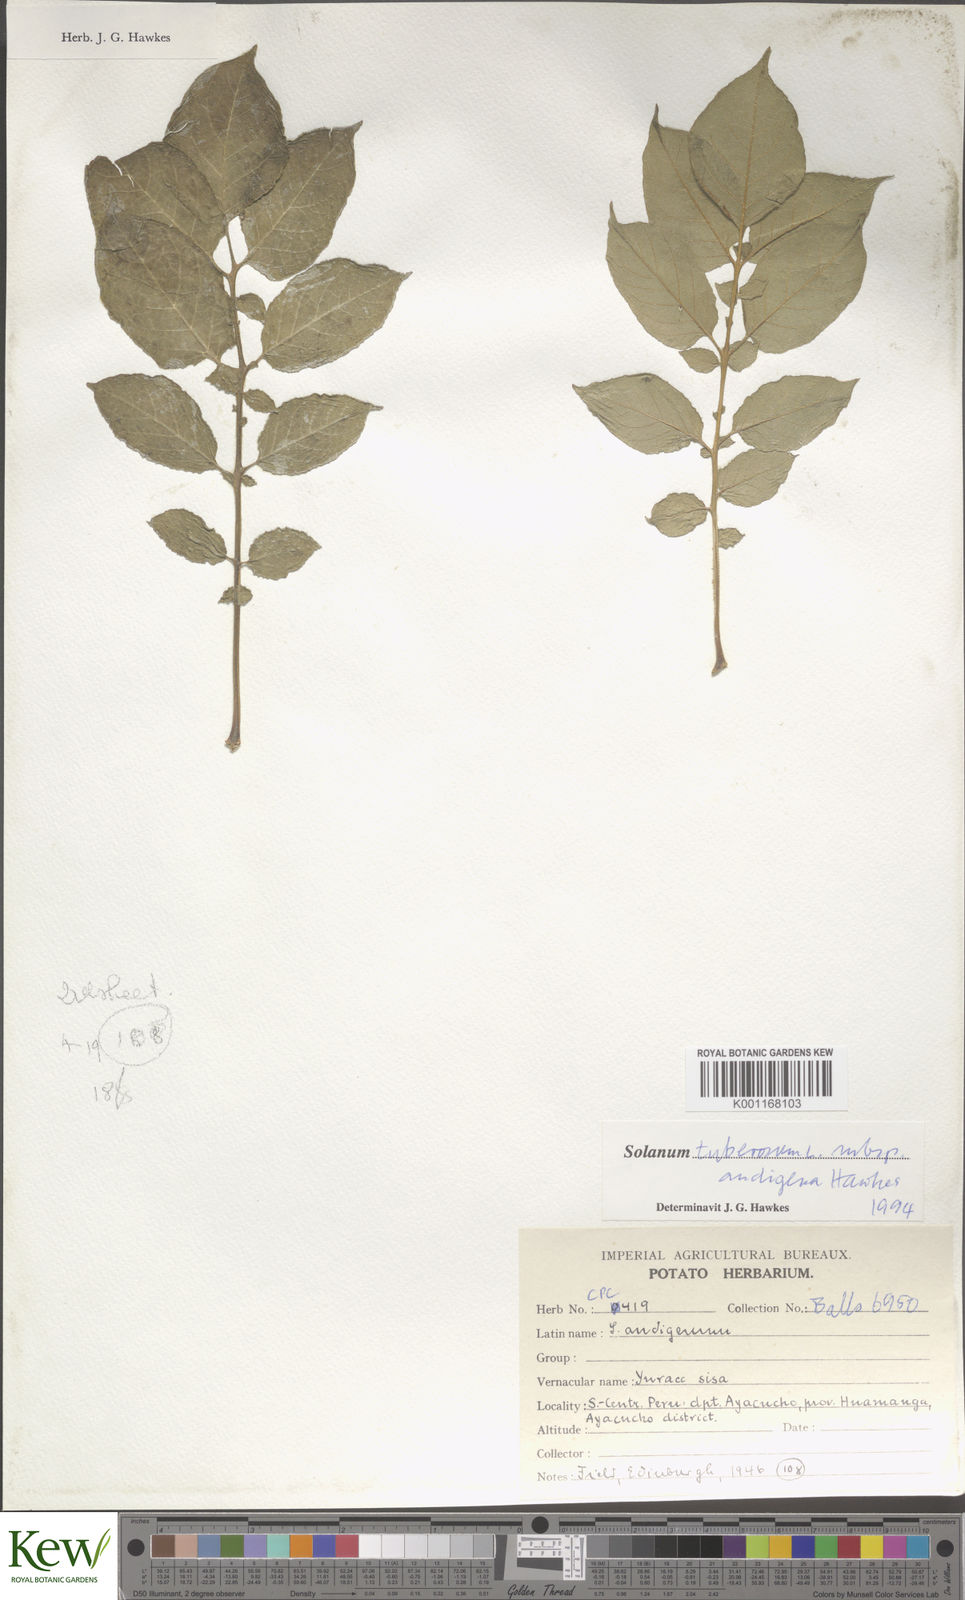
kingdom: Plantae
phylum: Tracheophyta
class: Magnoliopsida
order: Solanales
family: Solanaceae
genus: Solanum
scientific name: Solanum tuberosum
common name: Potato
